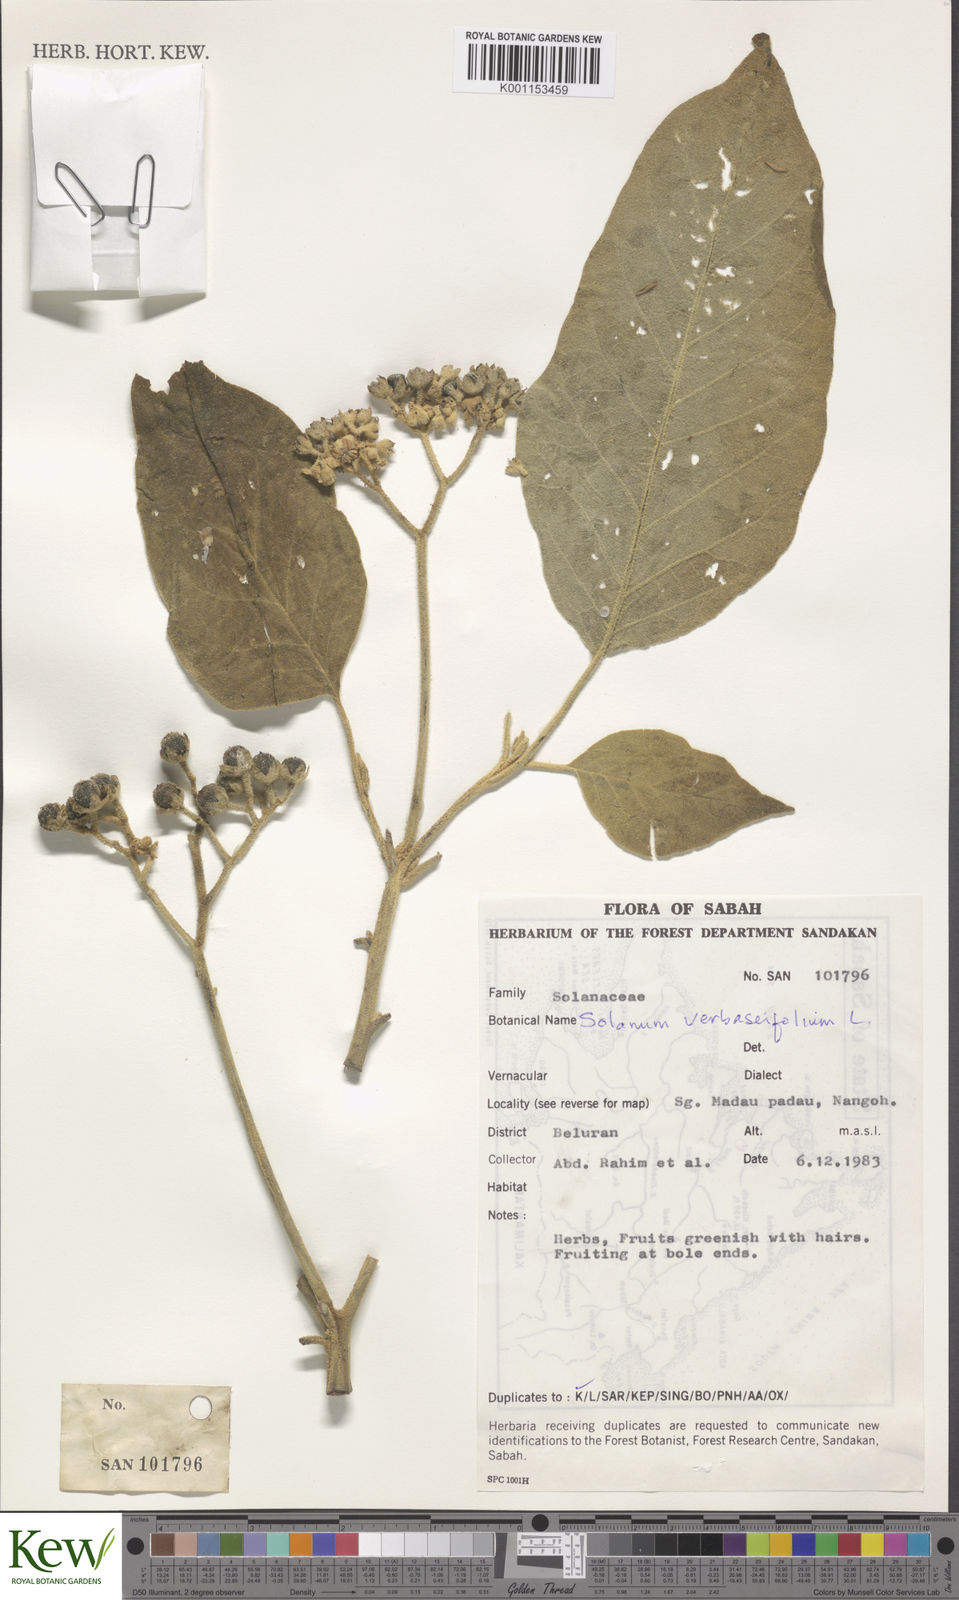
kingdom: Plantae
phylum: Tracheophyta
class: Magnoliopsida
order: Solanales
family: Solanaceae
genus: Solanum
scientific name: Solanum donianum
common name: Mullein nightshade
